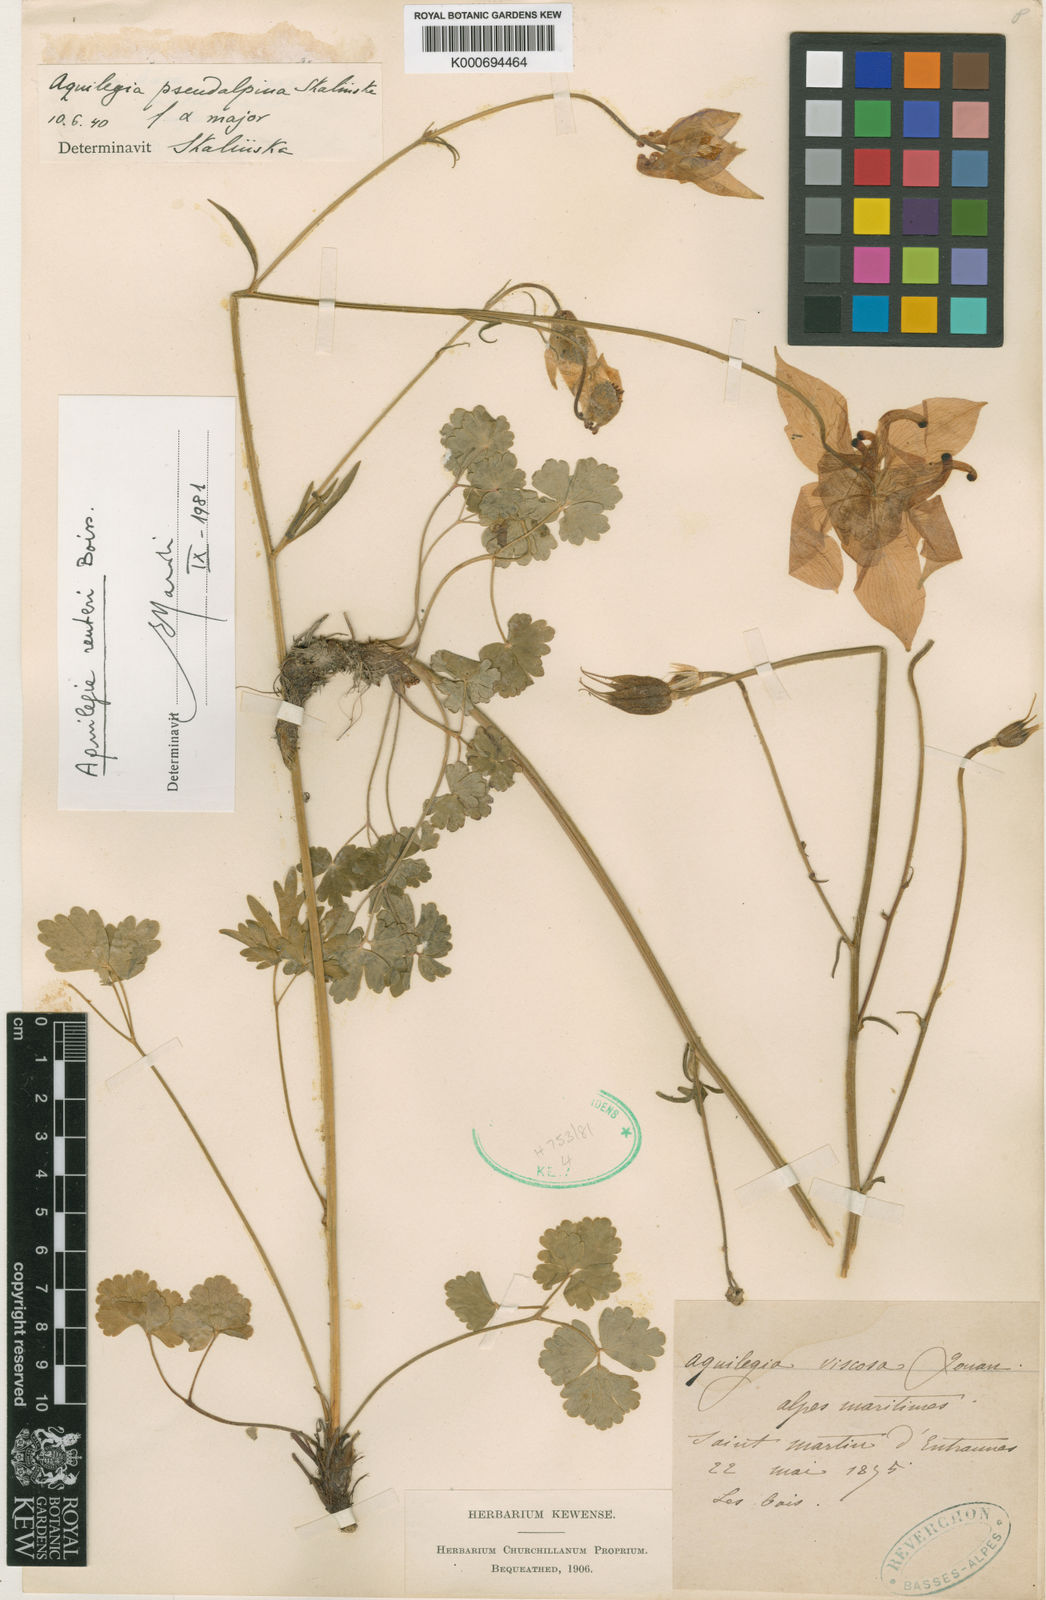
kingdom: Plantae
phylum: Tracheophyta
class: Magnoliopsida
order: Ranunculales
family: Ranunculaceae
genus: Aquilegia
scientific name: Aquilegia bertolonii
